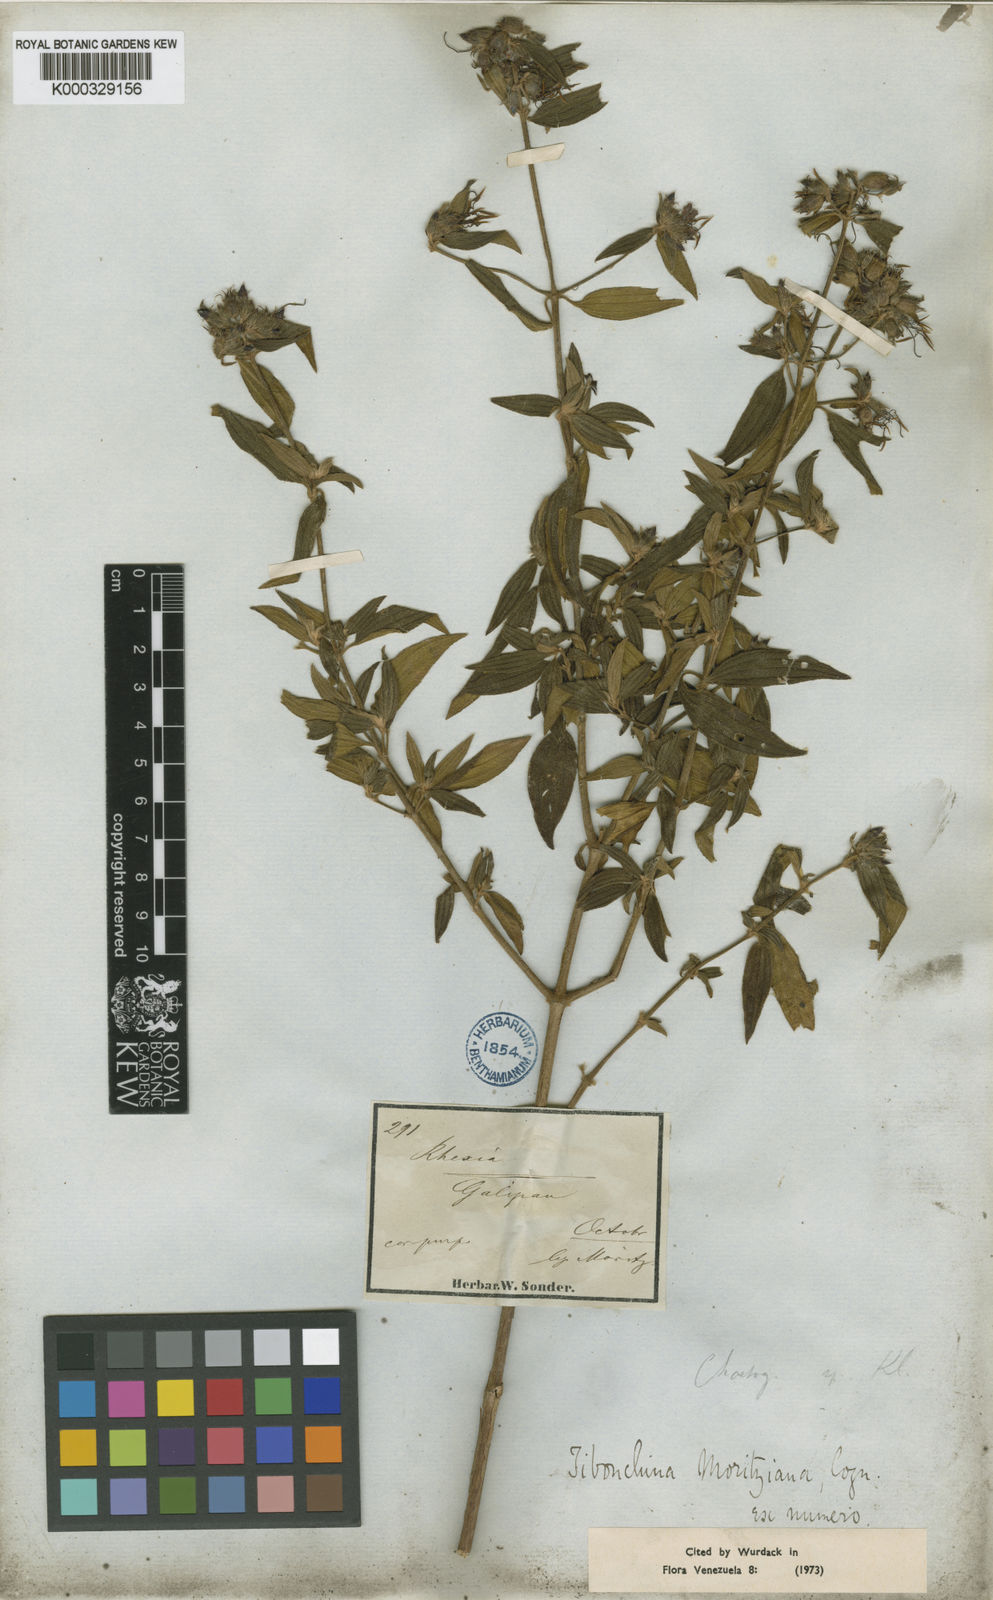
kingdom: Plantae
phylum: Tracheophyta
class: Magnoliopsida
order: Myrtales
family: Melastomataceae
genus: Chaetogastra
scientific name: Chaetogastra geitneriana
